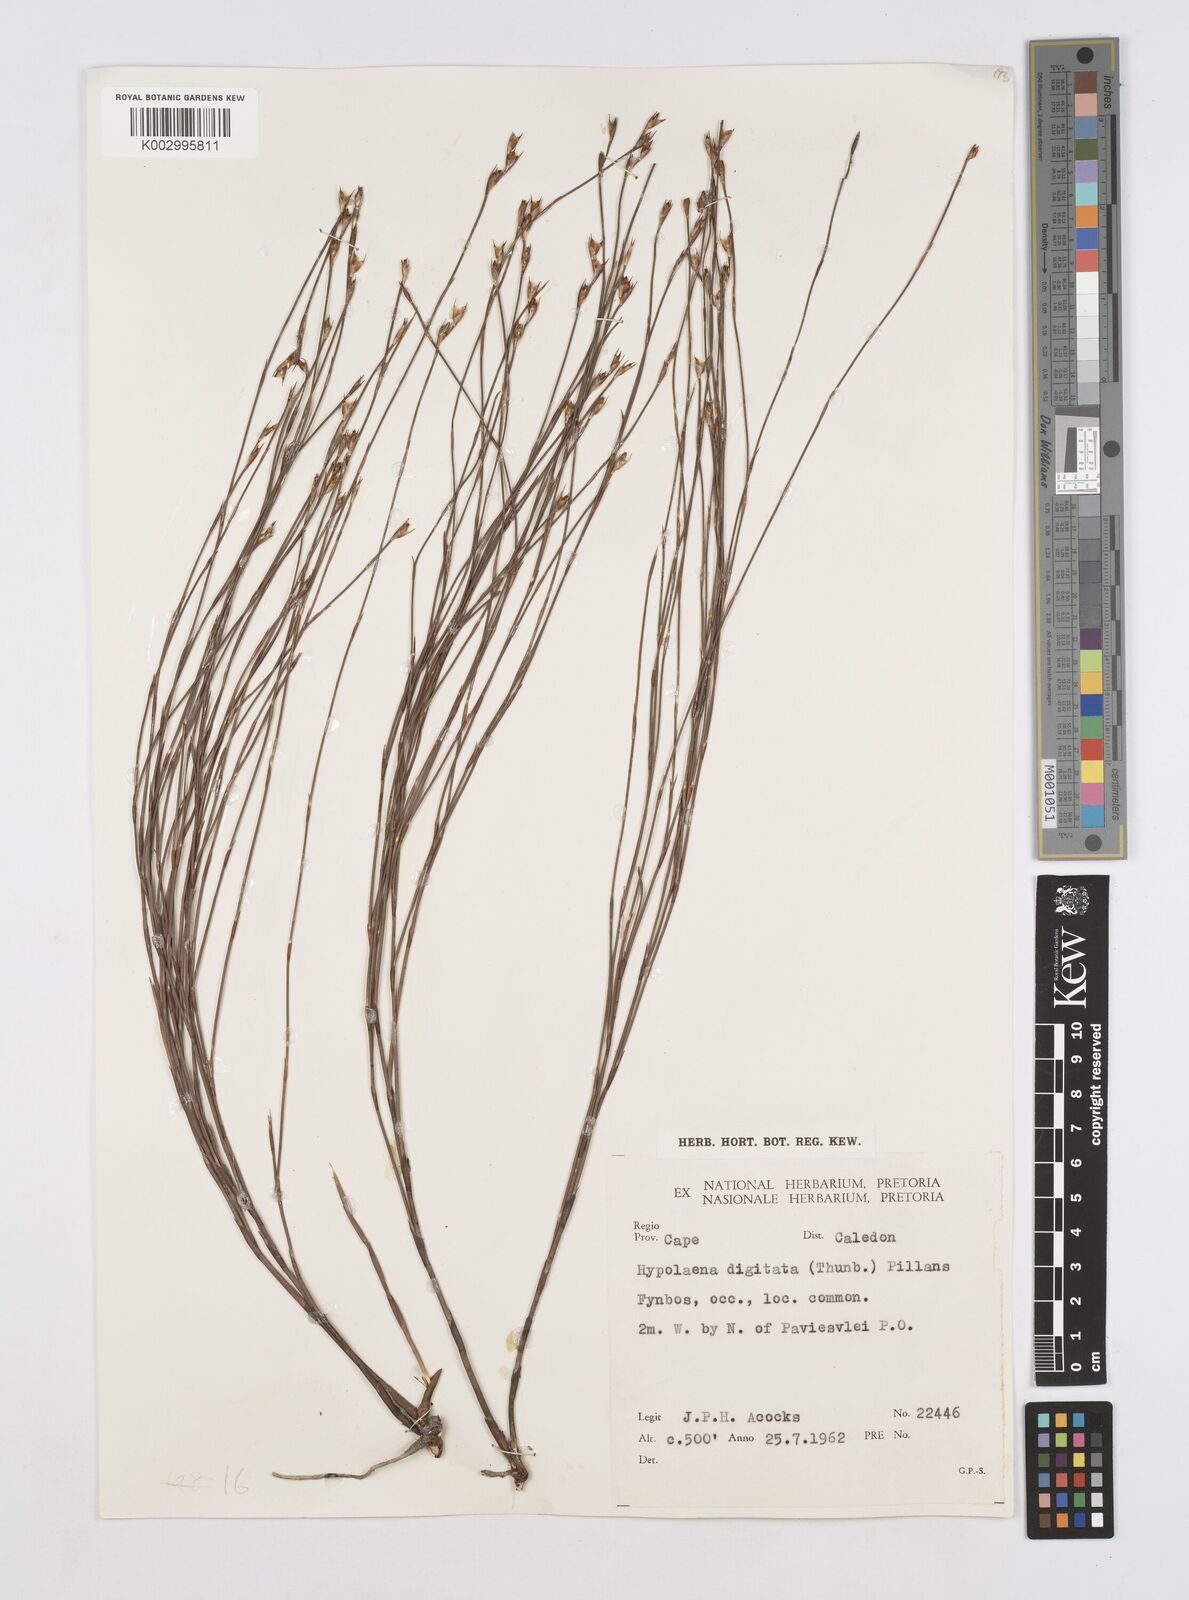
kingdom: Plantae
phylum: Tracheophyta
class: Liliopsida
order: Poales
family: Restionaceae
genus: Mastersiella
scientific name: Mastersiella digitata
